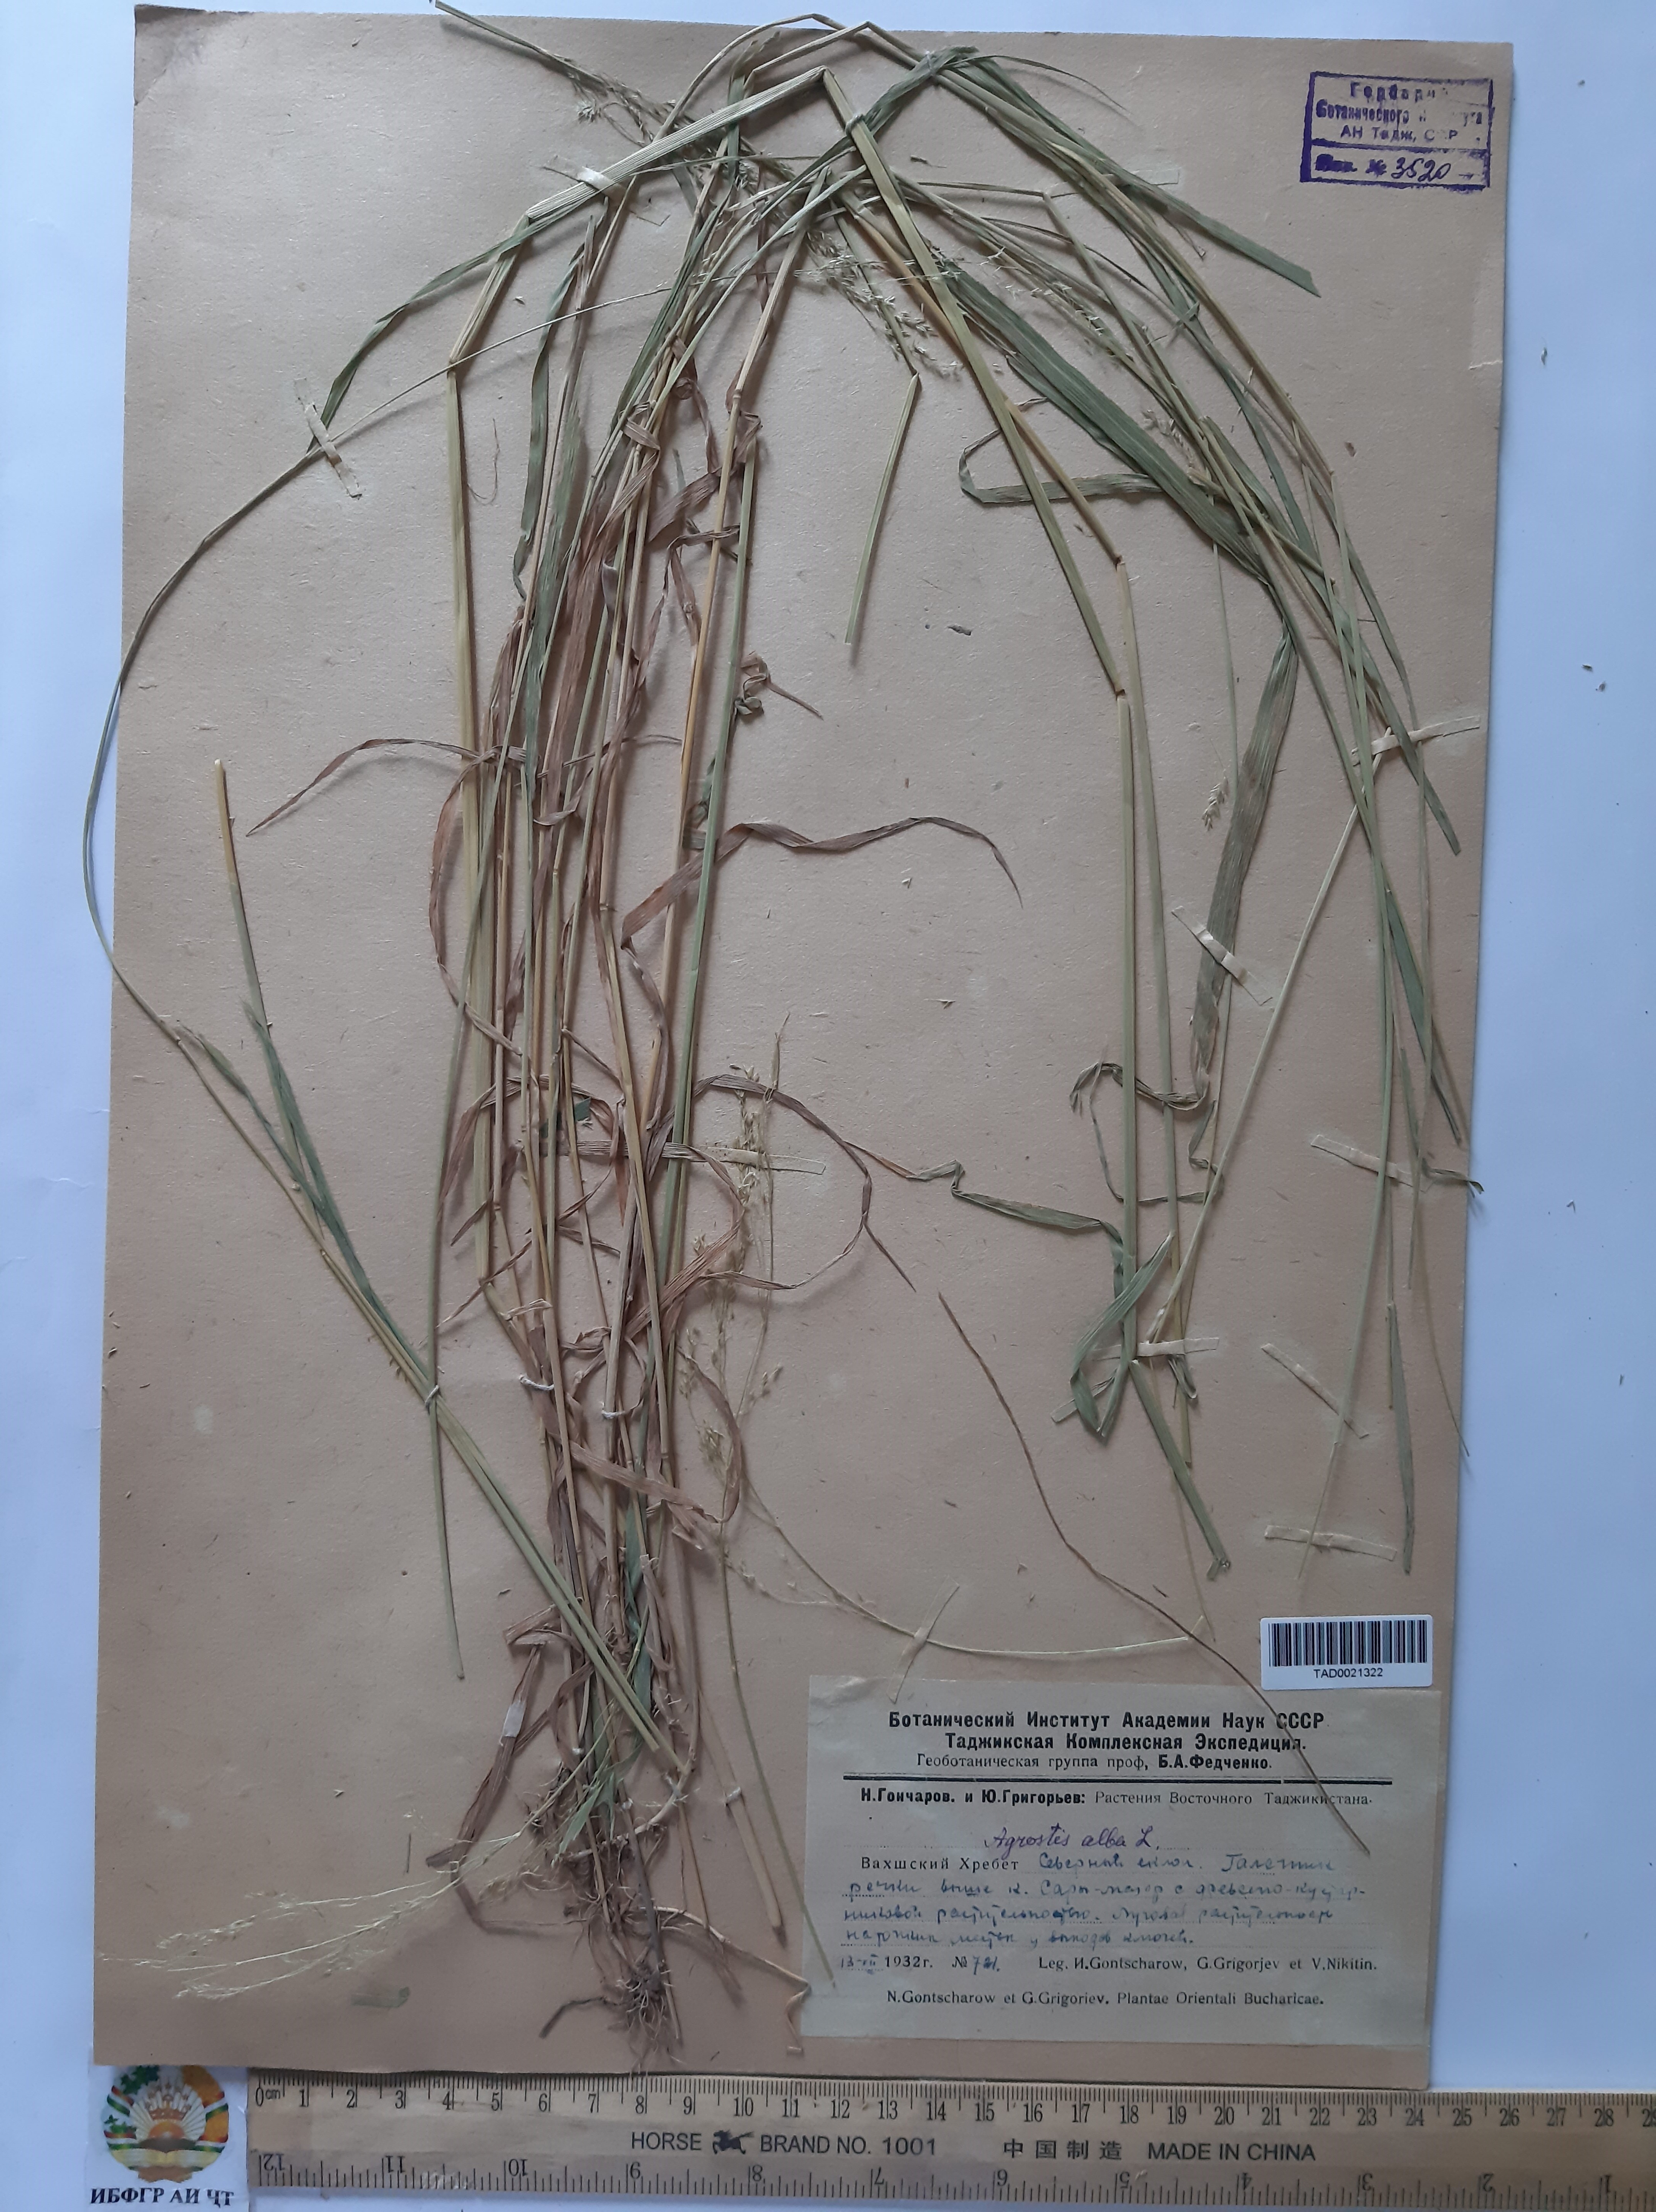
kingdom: Plantae
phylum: Tracheophyta
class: Liliopsida
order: Poales
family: Poaceae
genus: Poa
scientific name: Poa nemoralis
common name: Wood bluegrass
